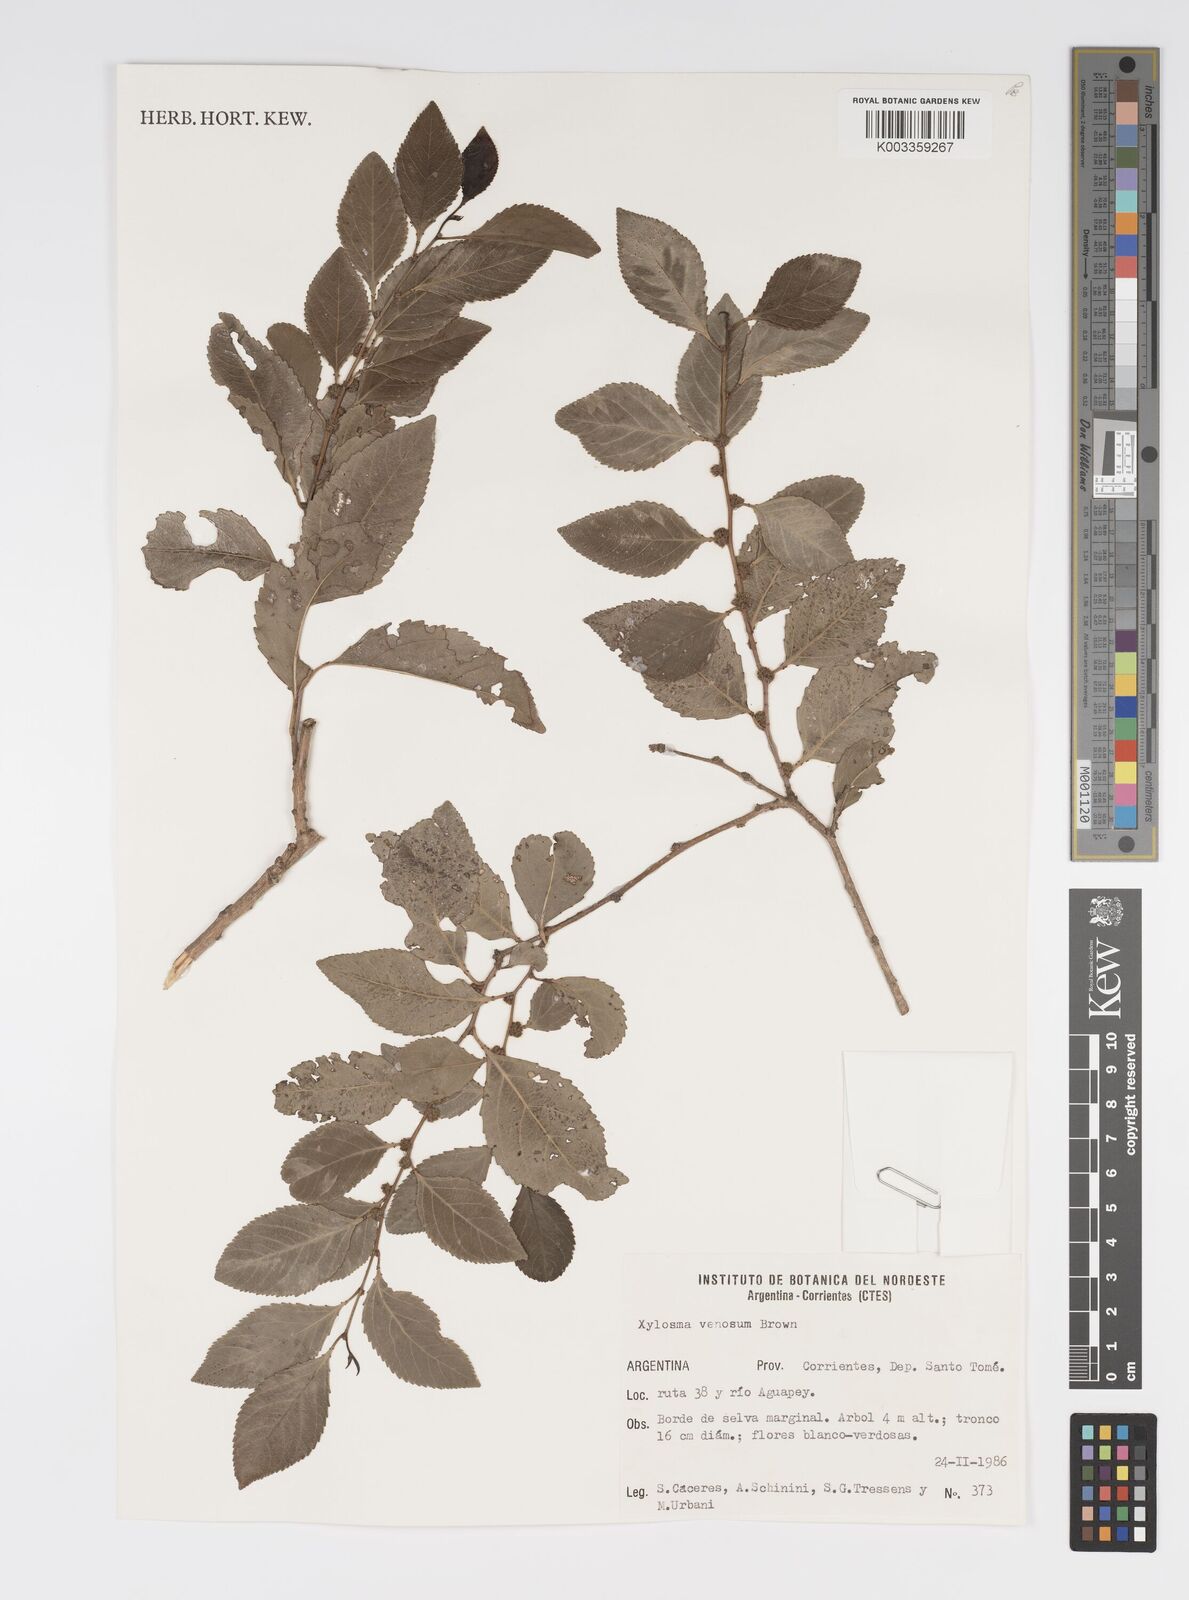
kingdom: Plantae
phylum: Tracheophyta
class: Magnoliopsida
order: Malpighiales
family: Salicaceae
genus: Xylosma
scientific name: Xylosma venosa
